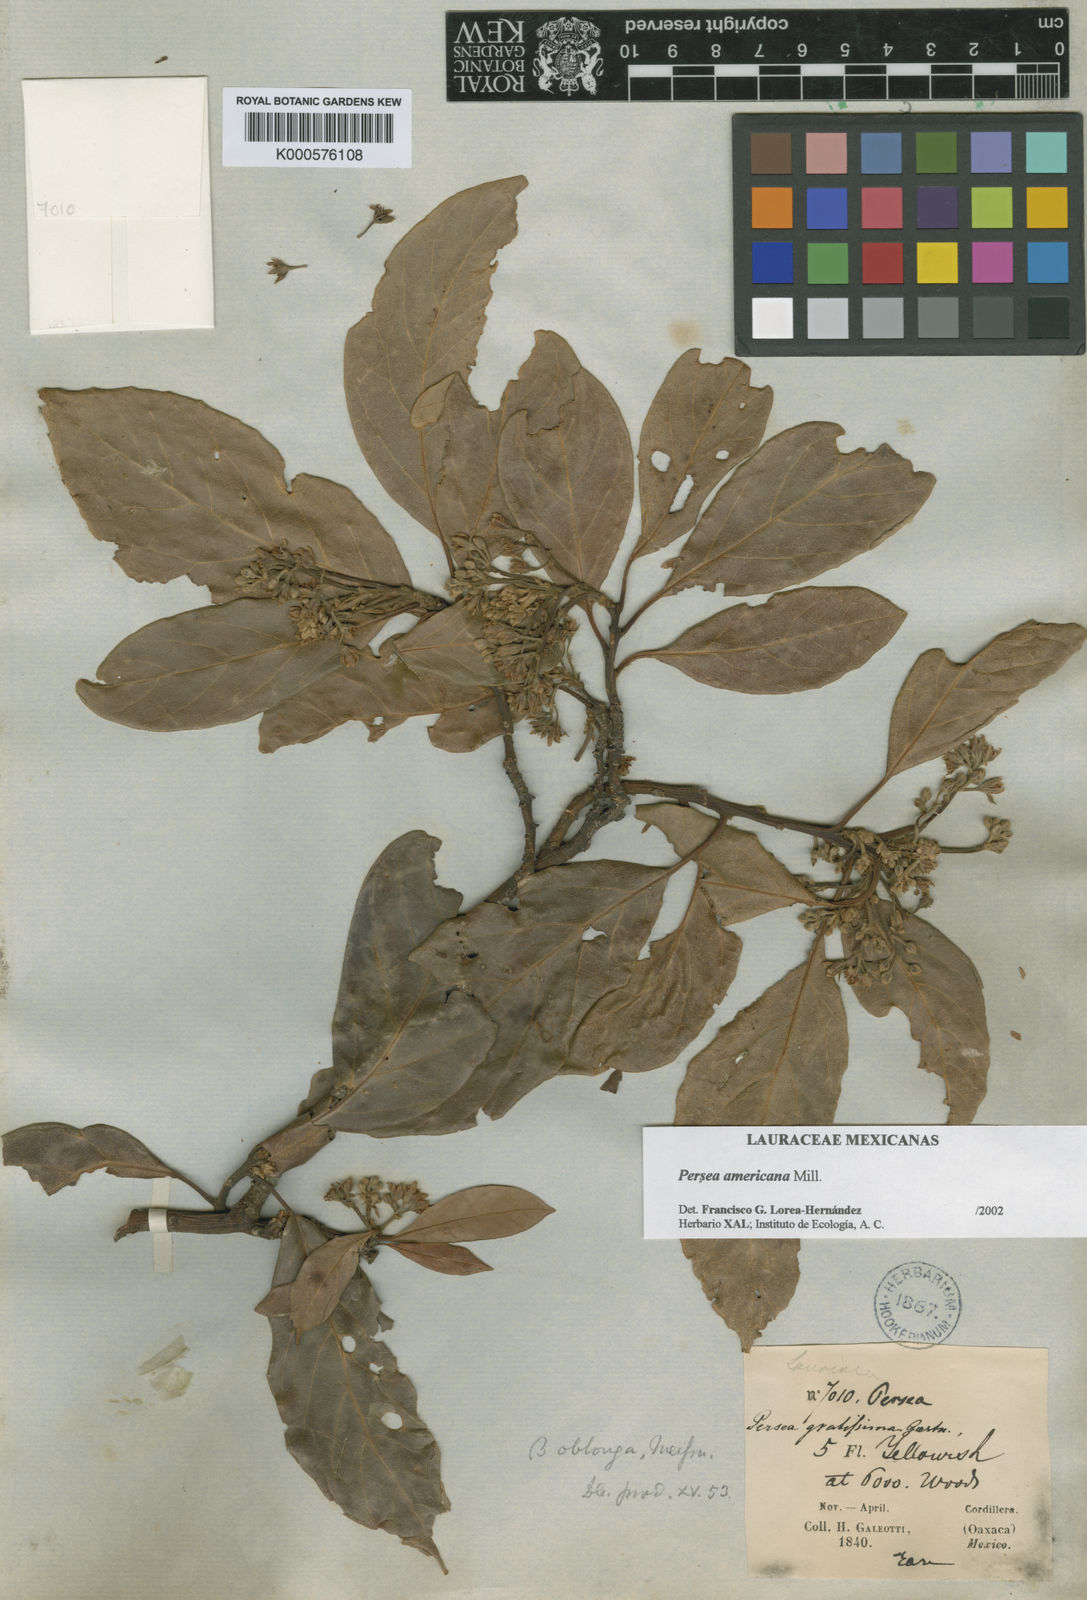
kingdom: Plantae
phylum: Tracheophyta
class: Magnoliopsida
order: Laurales
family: Lauraceae
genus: Persea
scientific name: Persea americana
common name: Avocado
